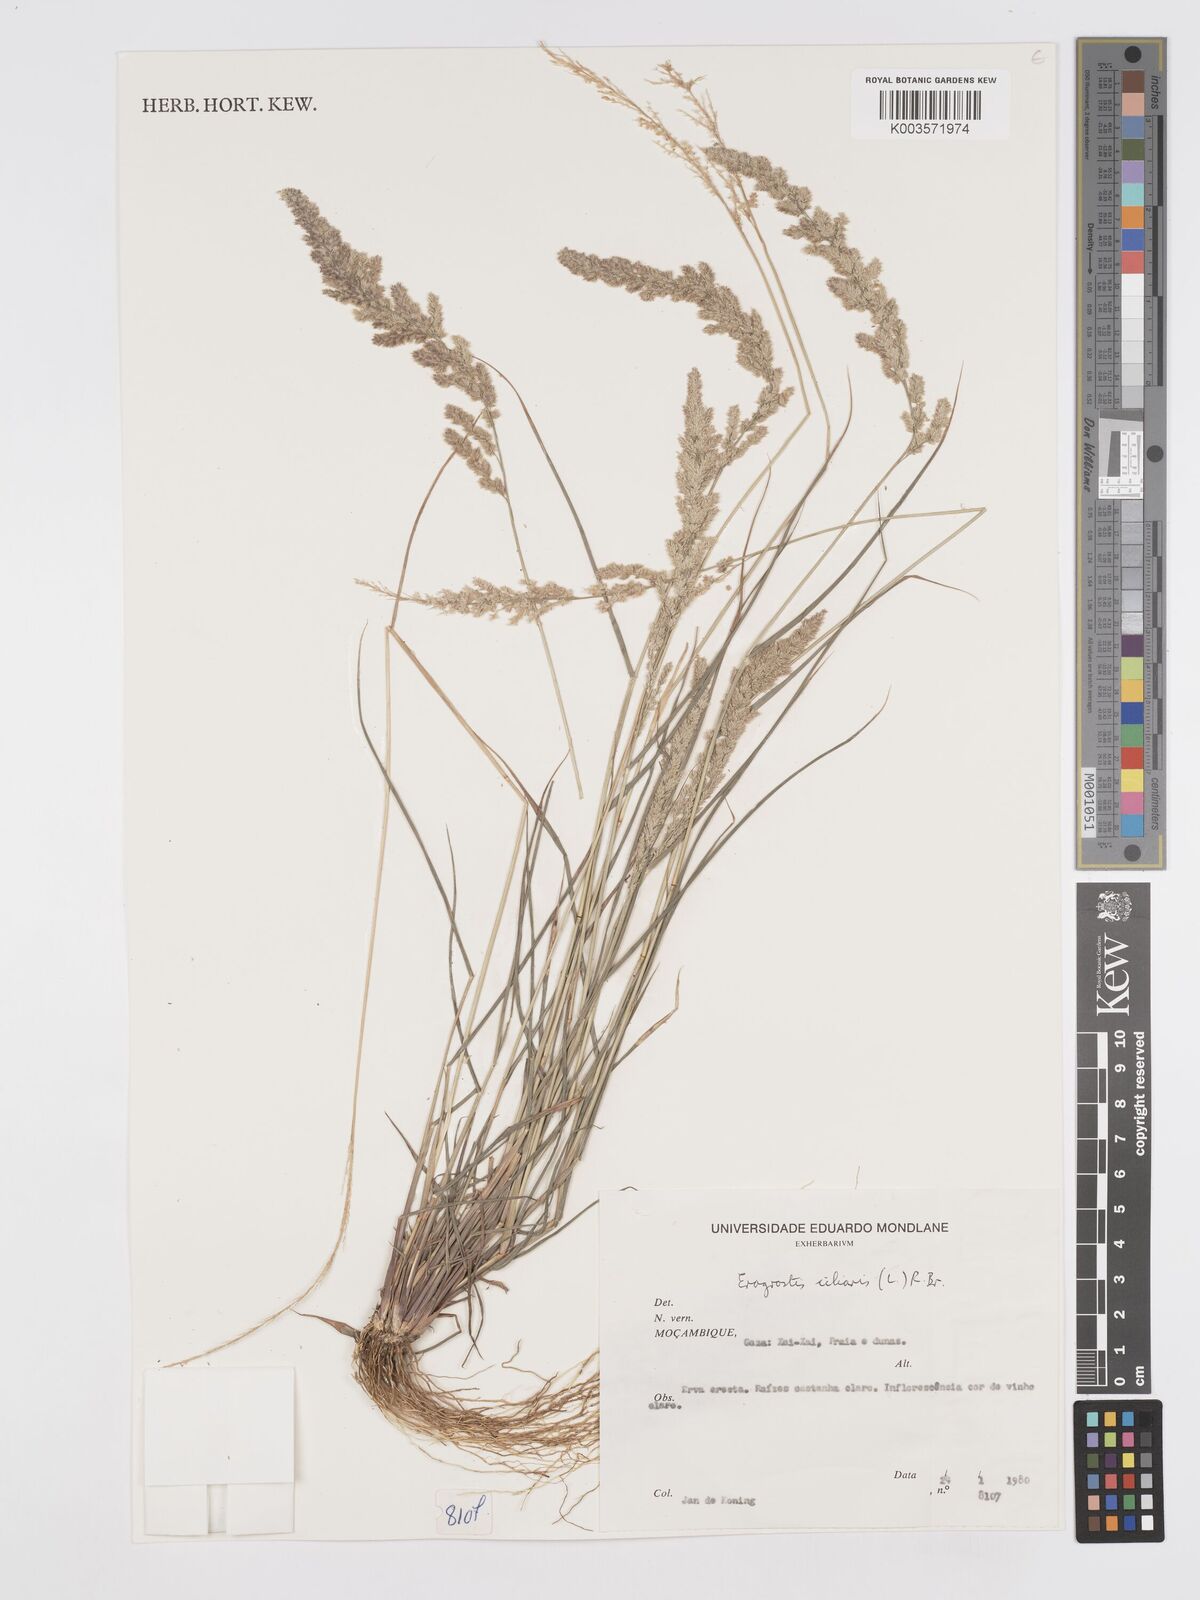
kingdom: Plantae
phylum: Tracheophyta
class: Liliopsida
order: Poales
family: Poaceae
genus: Eragrostis
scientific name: Eragrostis ciliaris
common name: Gophertail lovegrass
